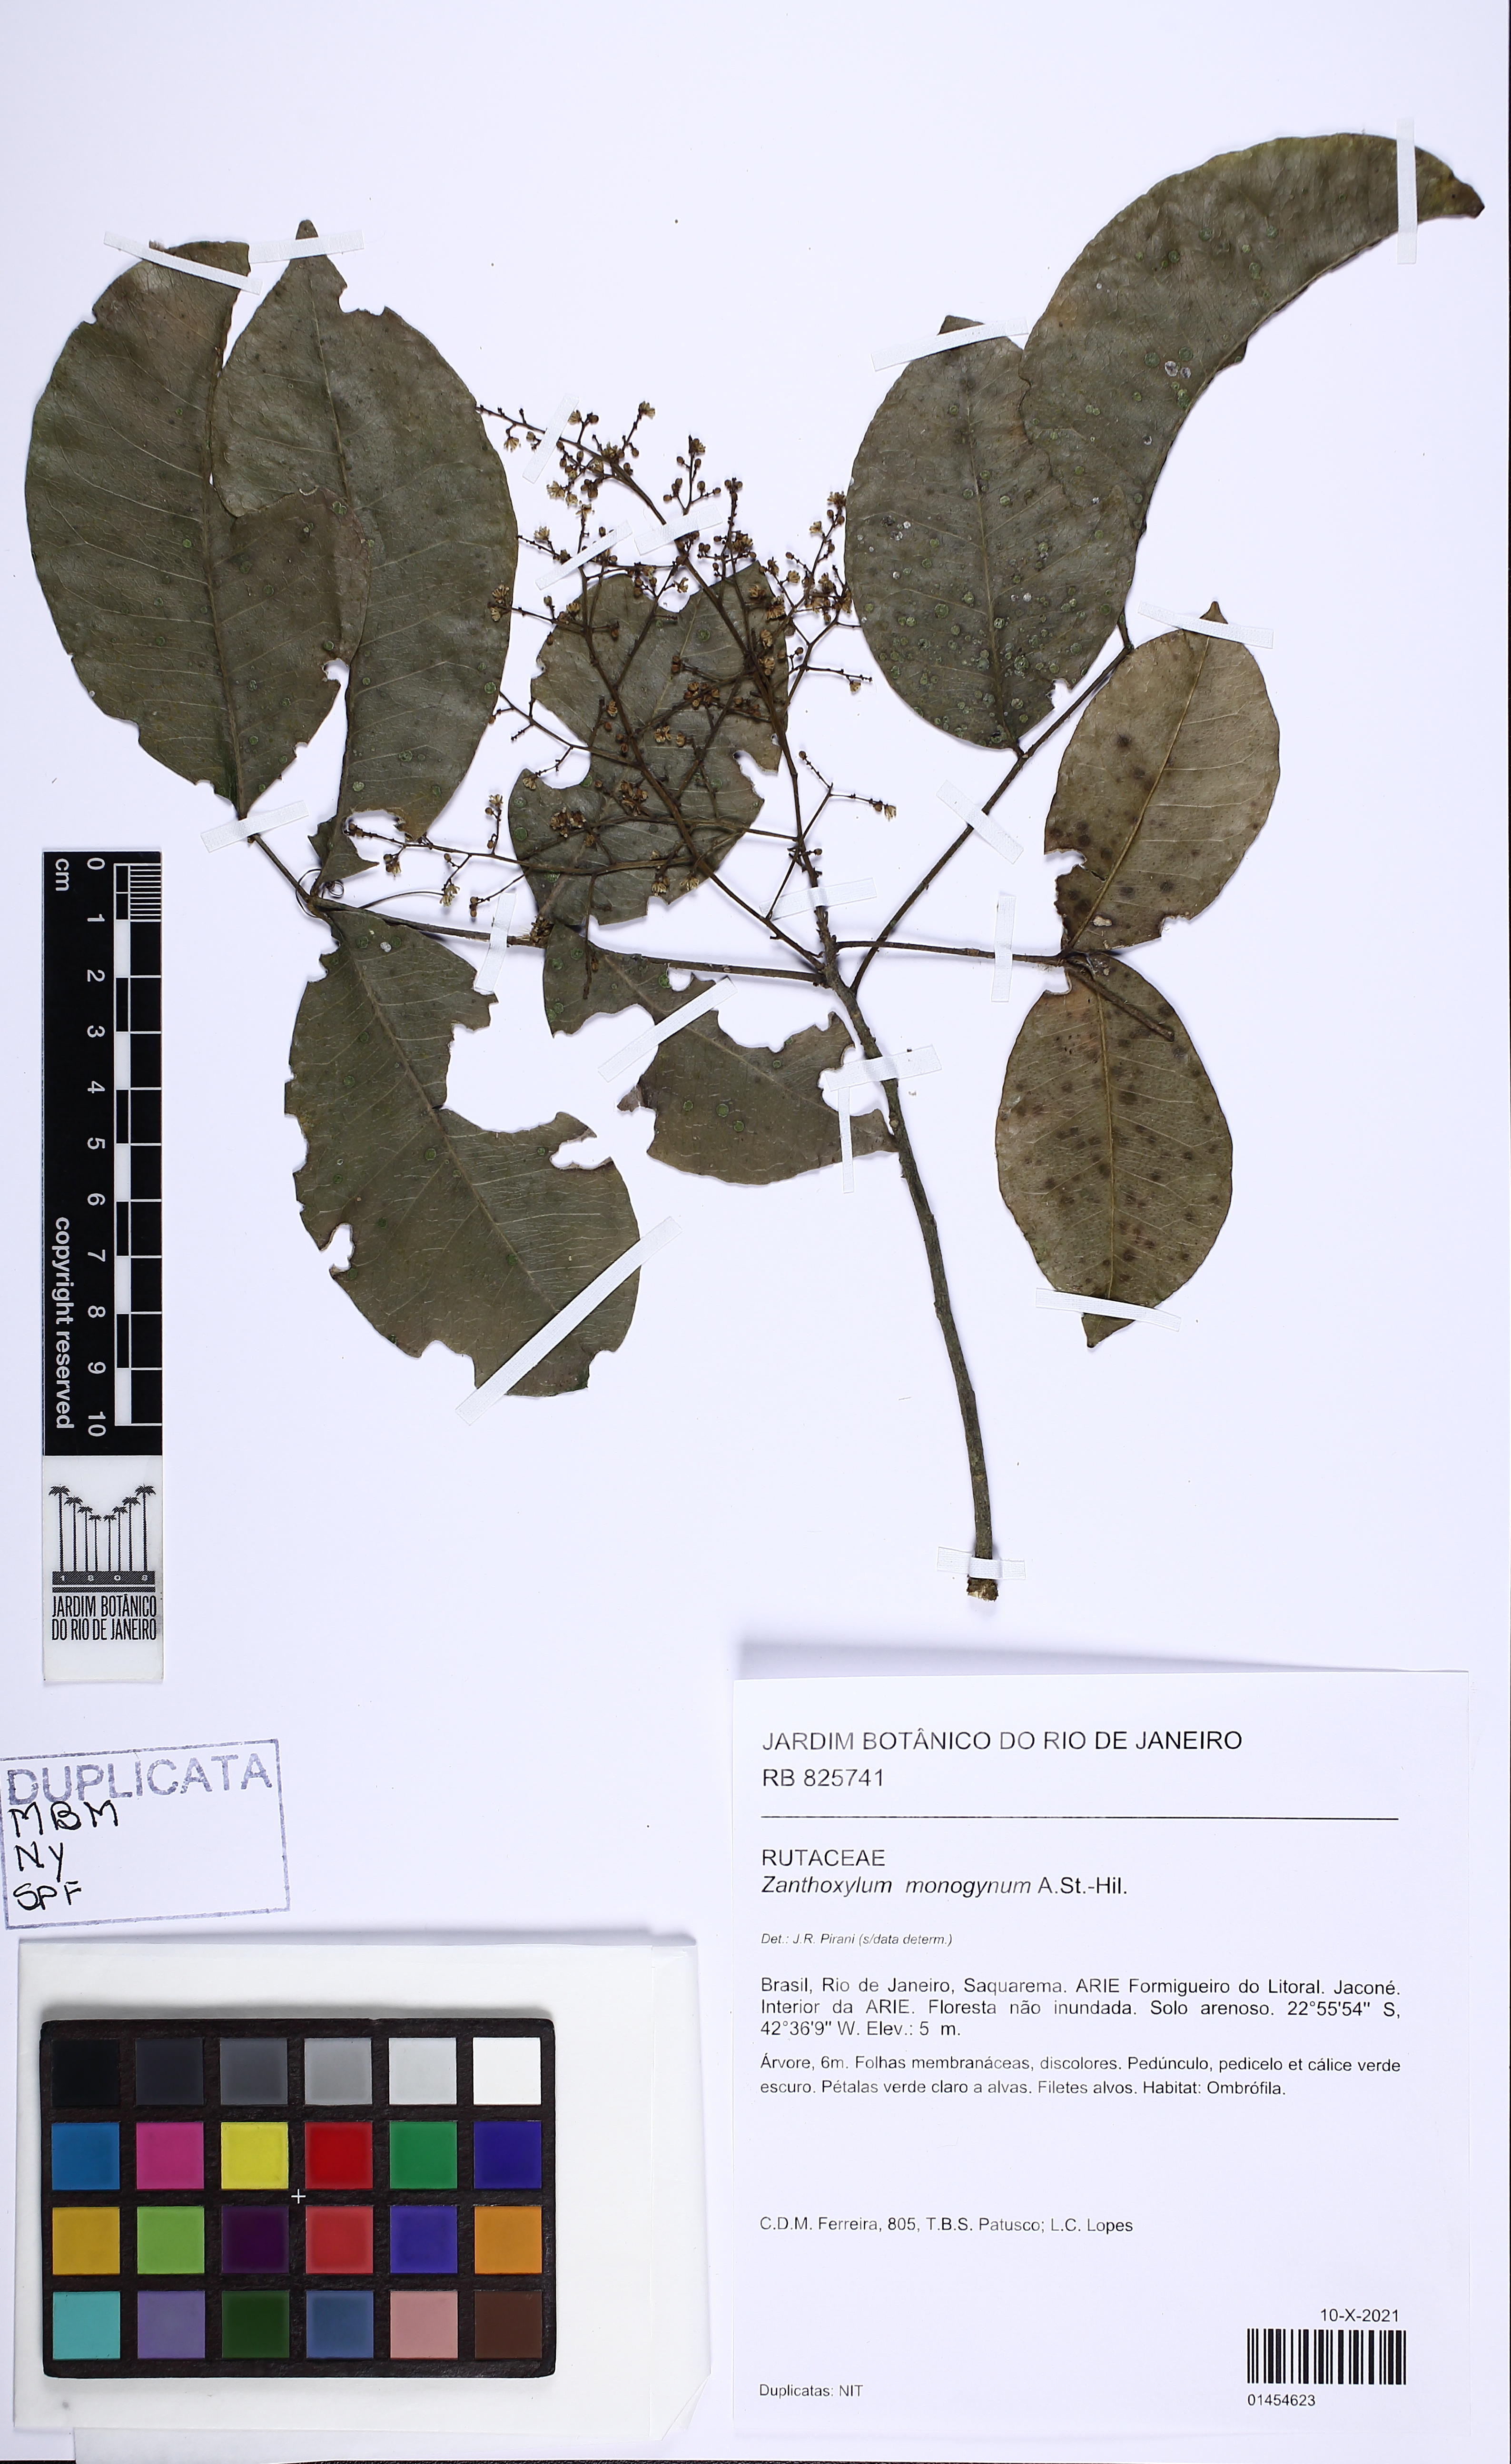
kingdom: Plantae
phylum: Tracheophyta
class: Magnoliopsida
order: Sapindales
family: Rutaceae
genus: Zanthoxylum
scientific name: Zanthoxylum monogynum
